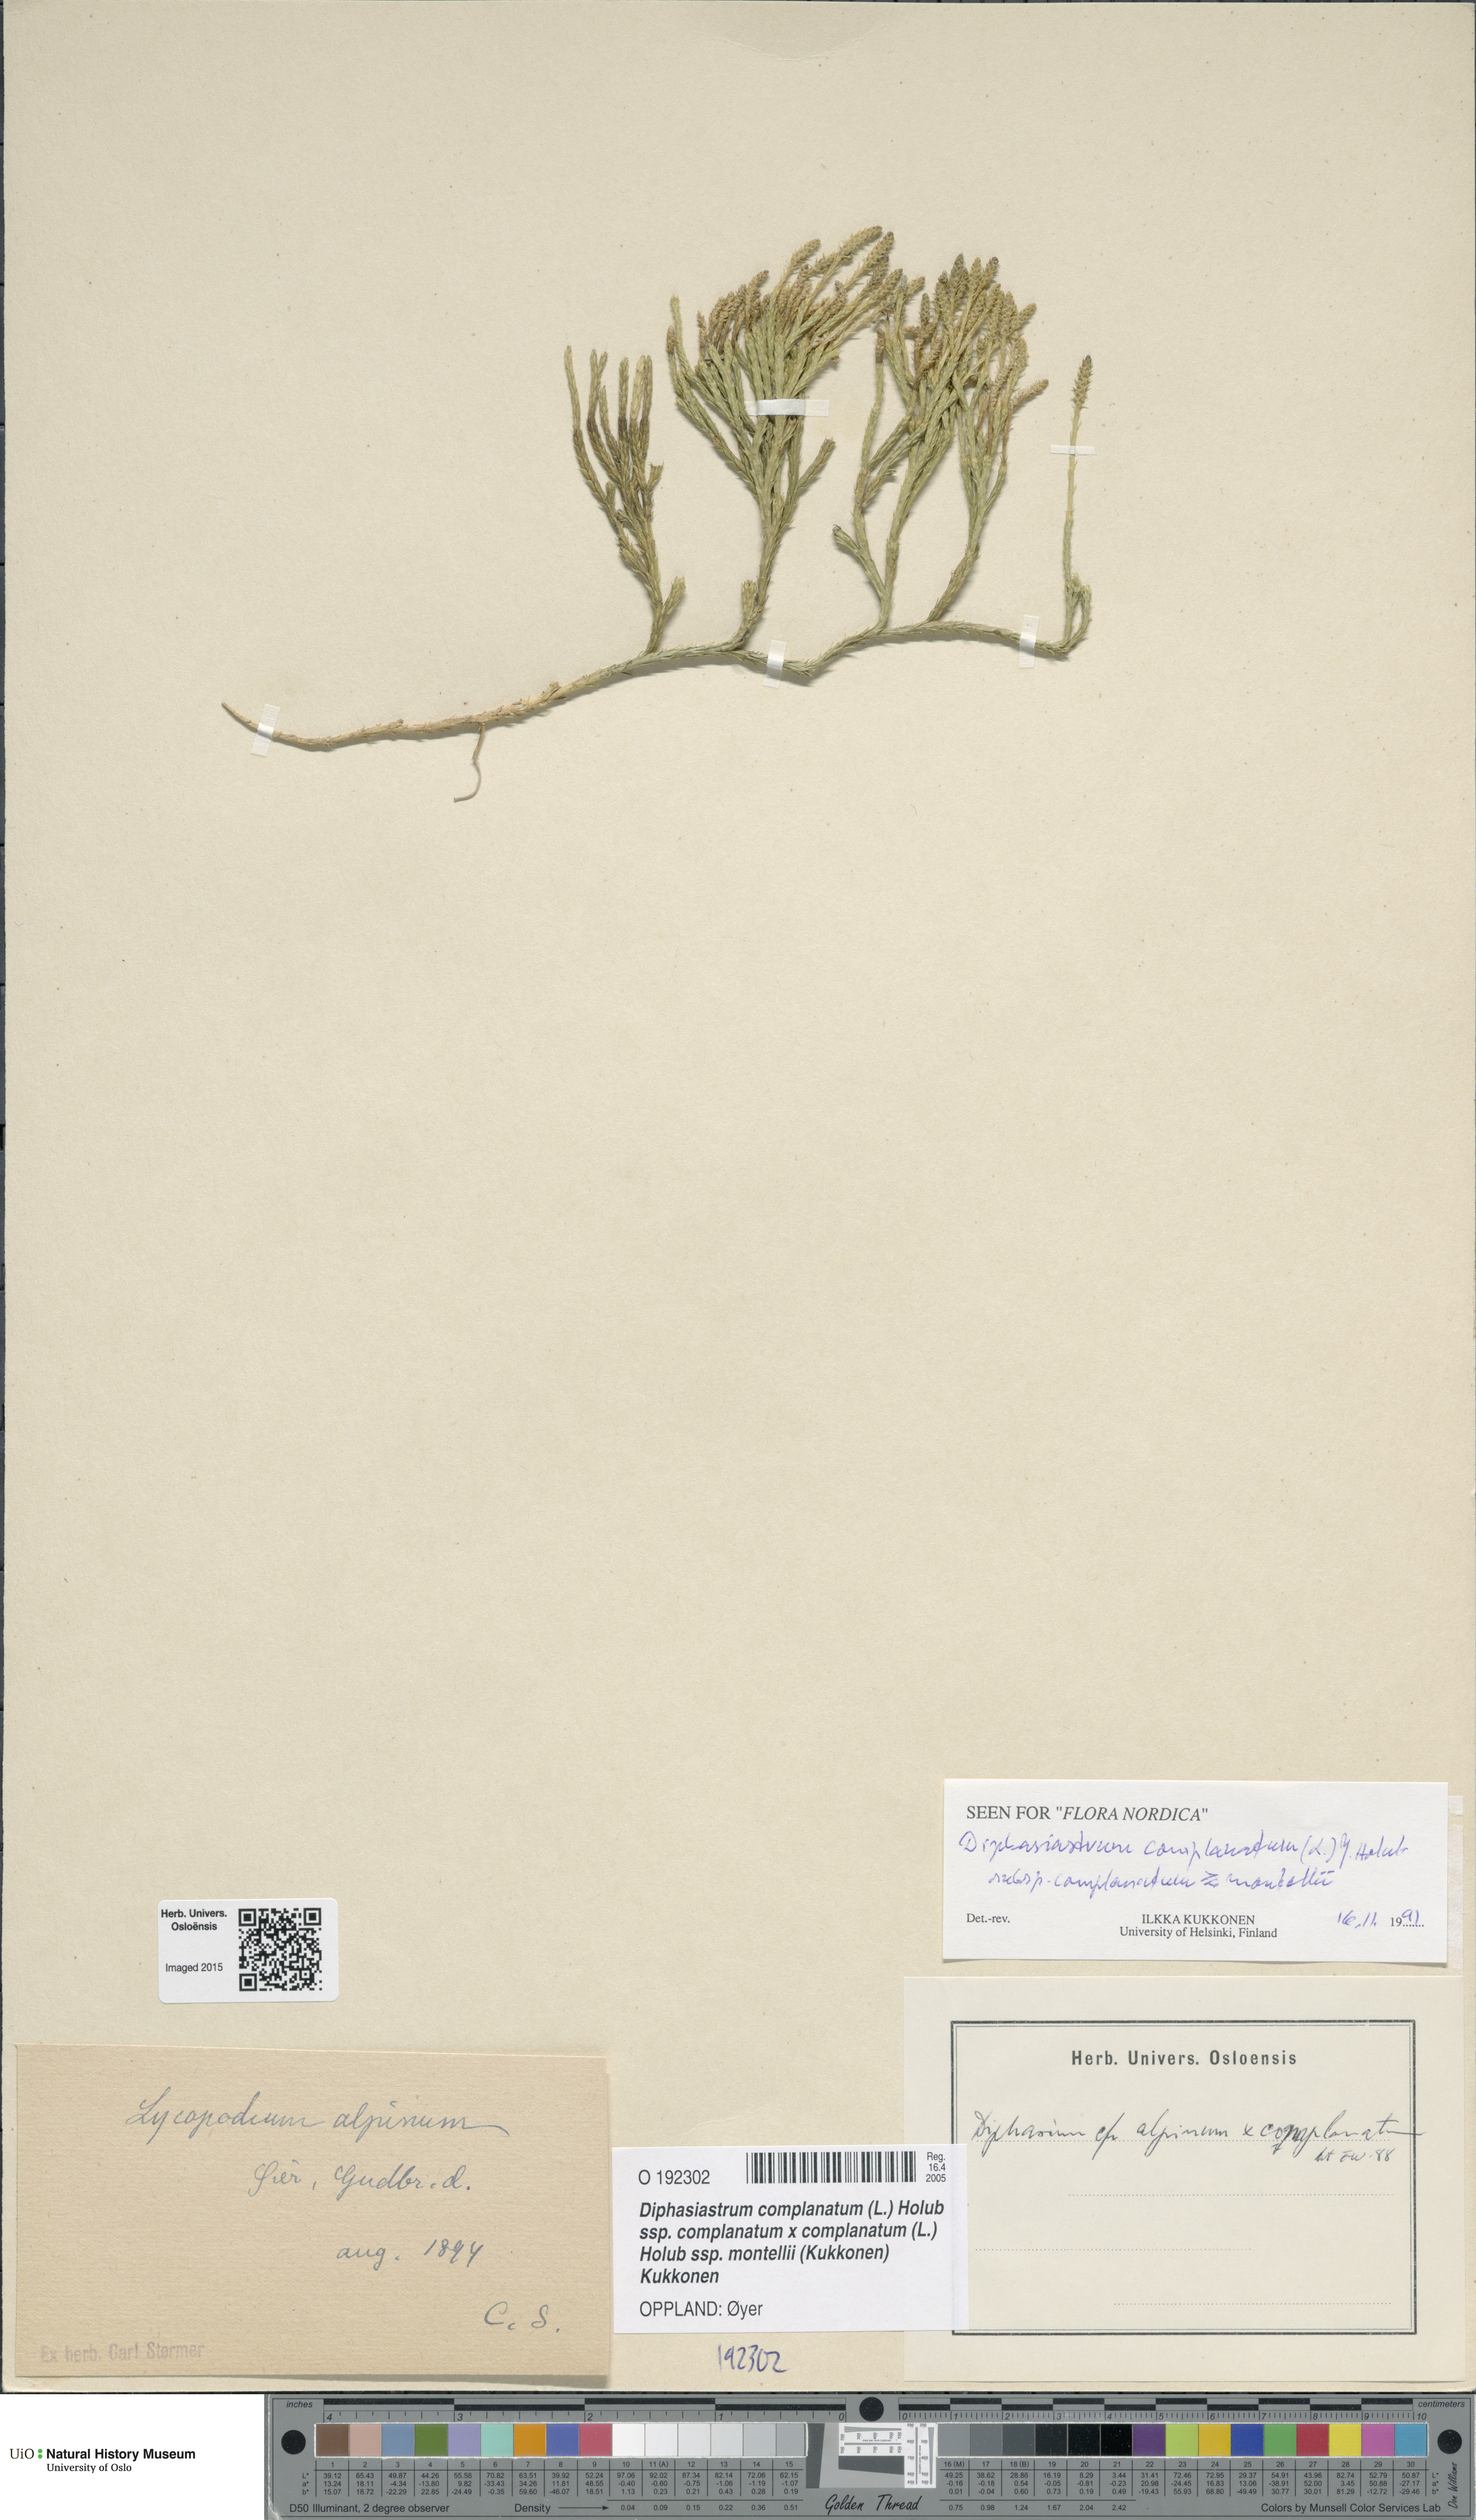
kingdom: Plantae
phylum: Tracheophyta
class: Lycopodiopsida
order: Lycopodiales
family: Lycopodiaceae
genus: Diphasiastrum
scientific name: Diphasiastrum
